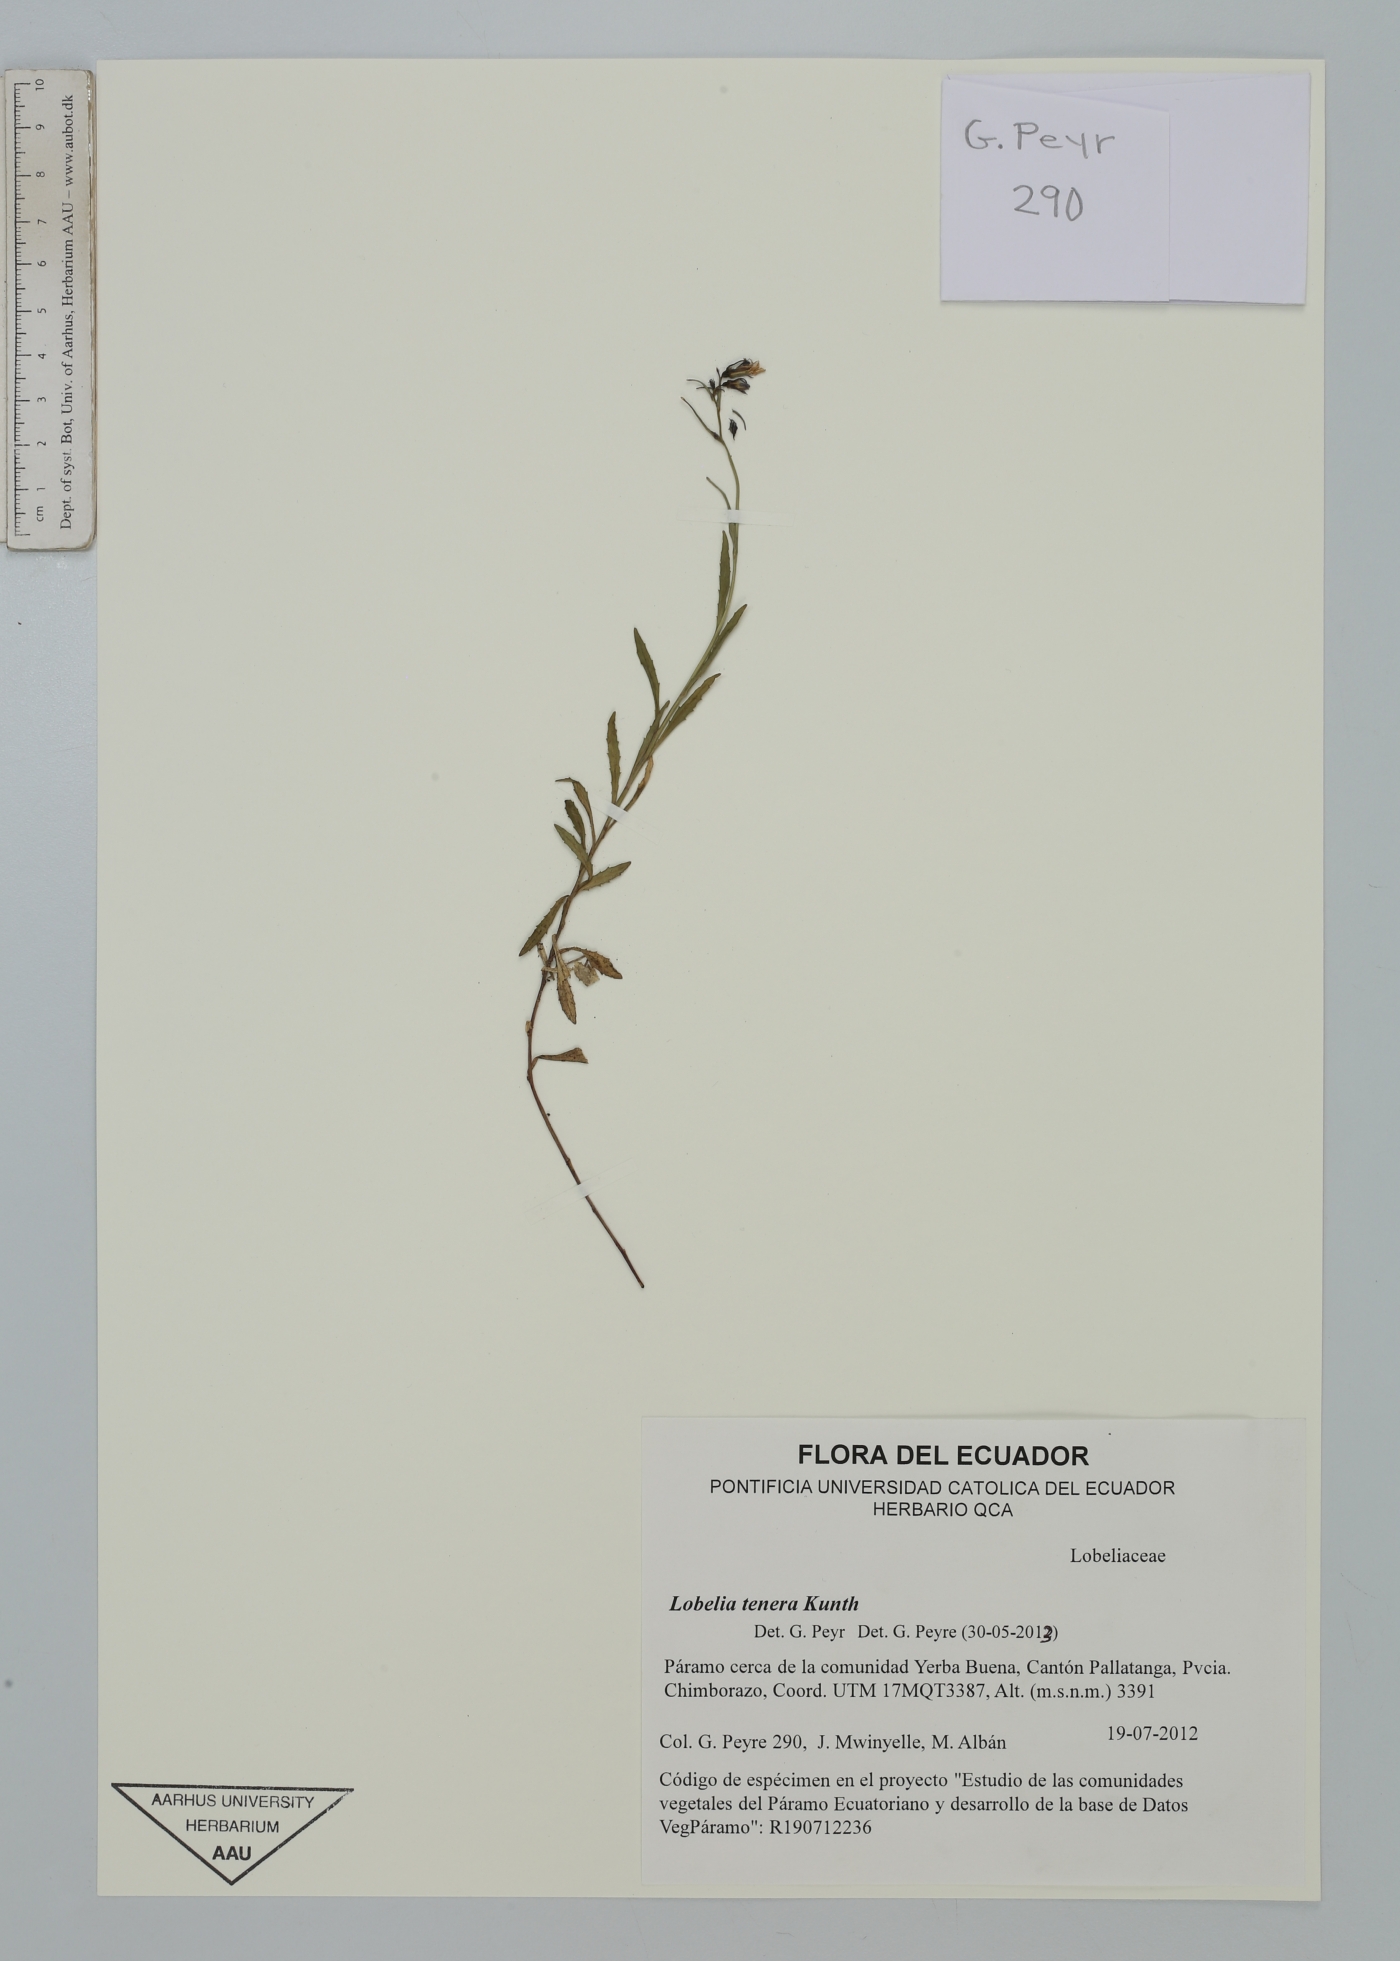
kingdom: Plantae
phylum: Tracheophyta
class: Magnoliopsida
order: Asterales
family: Campanulaceae
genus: Lobelia
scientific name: Lobelia tenera
